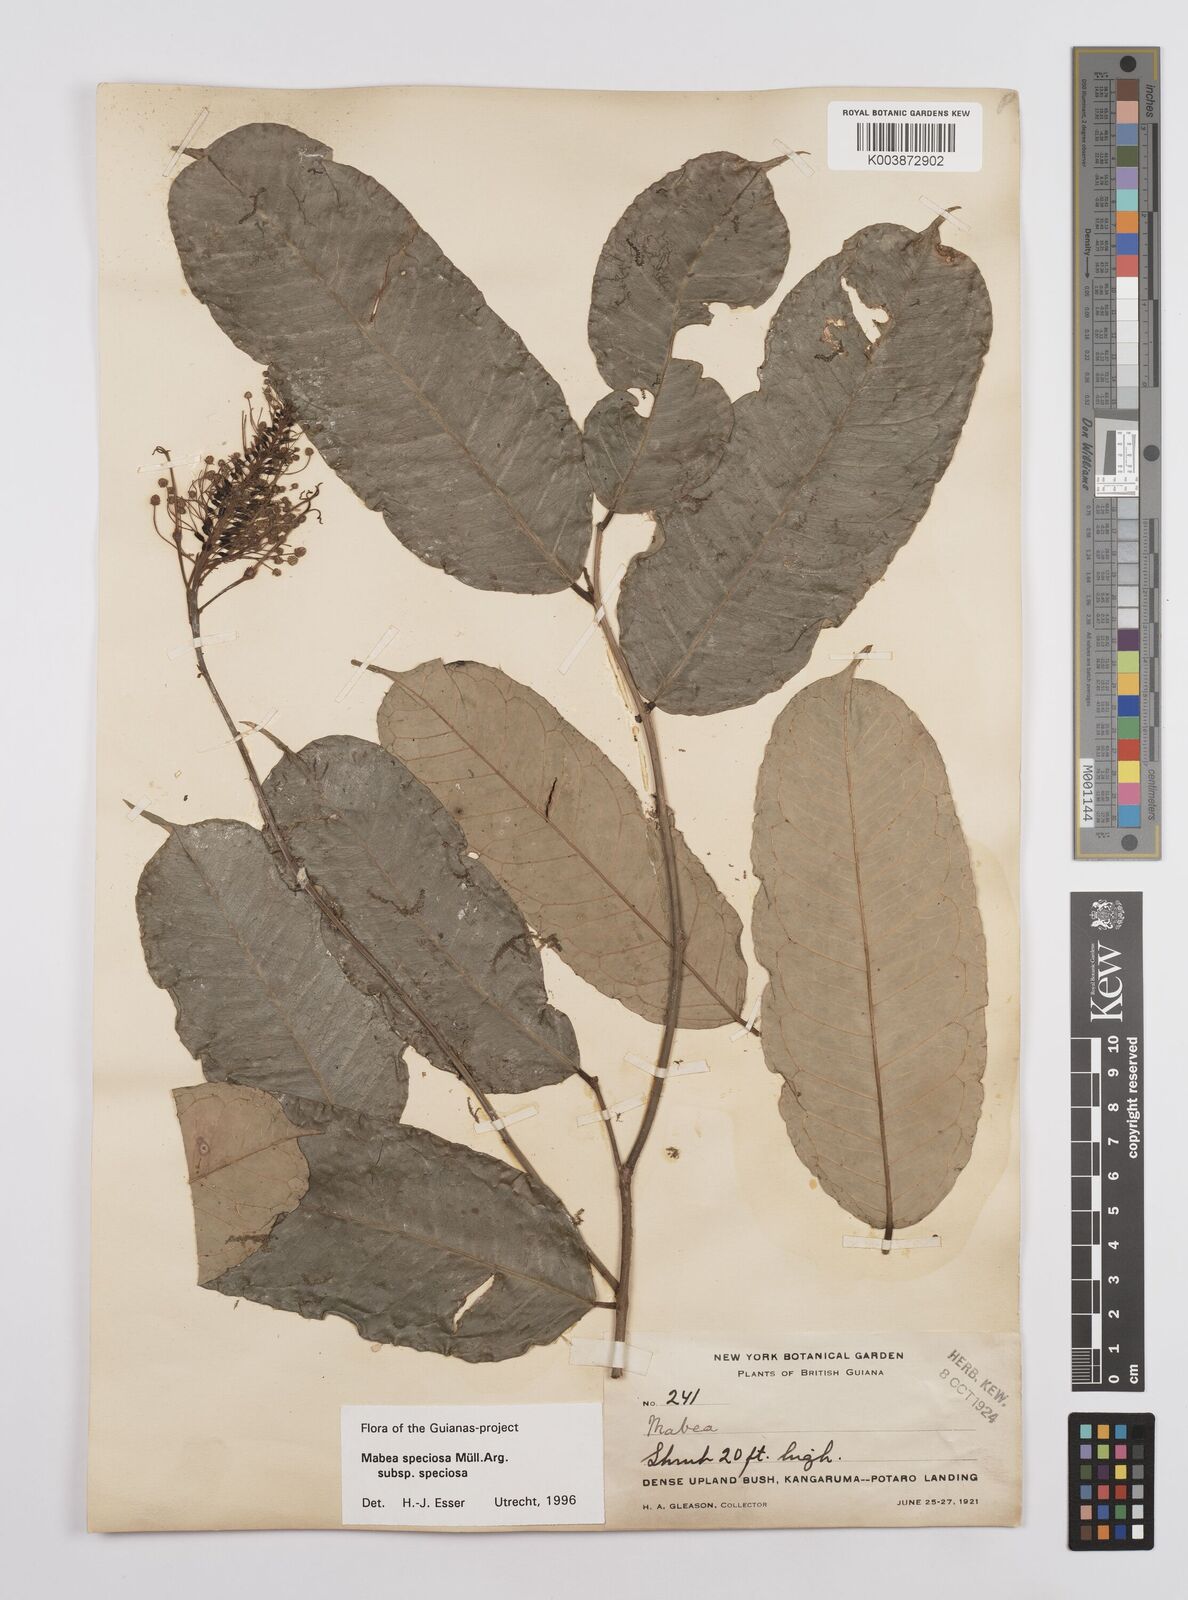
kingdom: Plantae
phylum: Tracheophyta
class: Magnoliopsida
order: Malpighiales
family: Euphorbiaceae
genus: Mabea
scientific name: Mabea speciosa
